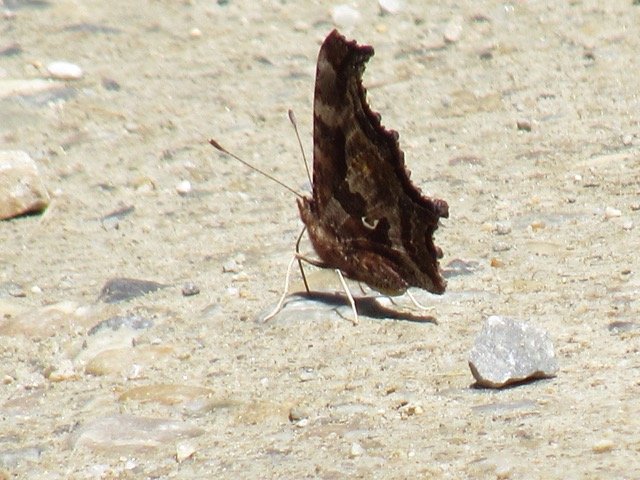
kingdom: Animalia
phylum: Arthropoda
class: Insecta
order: Lepidoptera
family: Nymphalidae
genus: Polygonia
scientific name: Polygonia comma
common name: Eastern Comma
